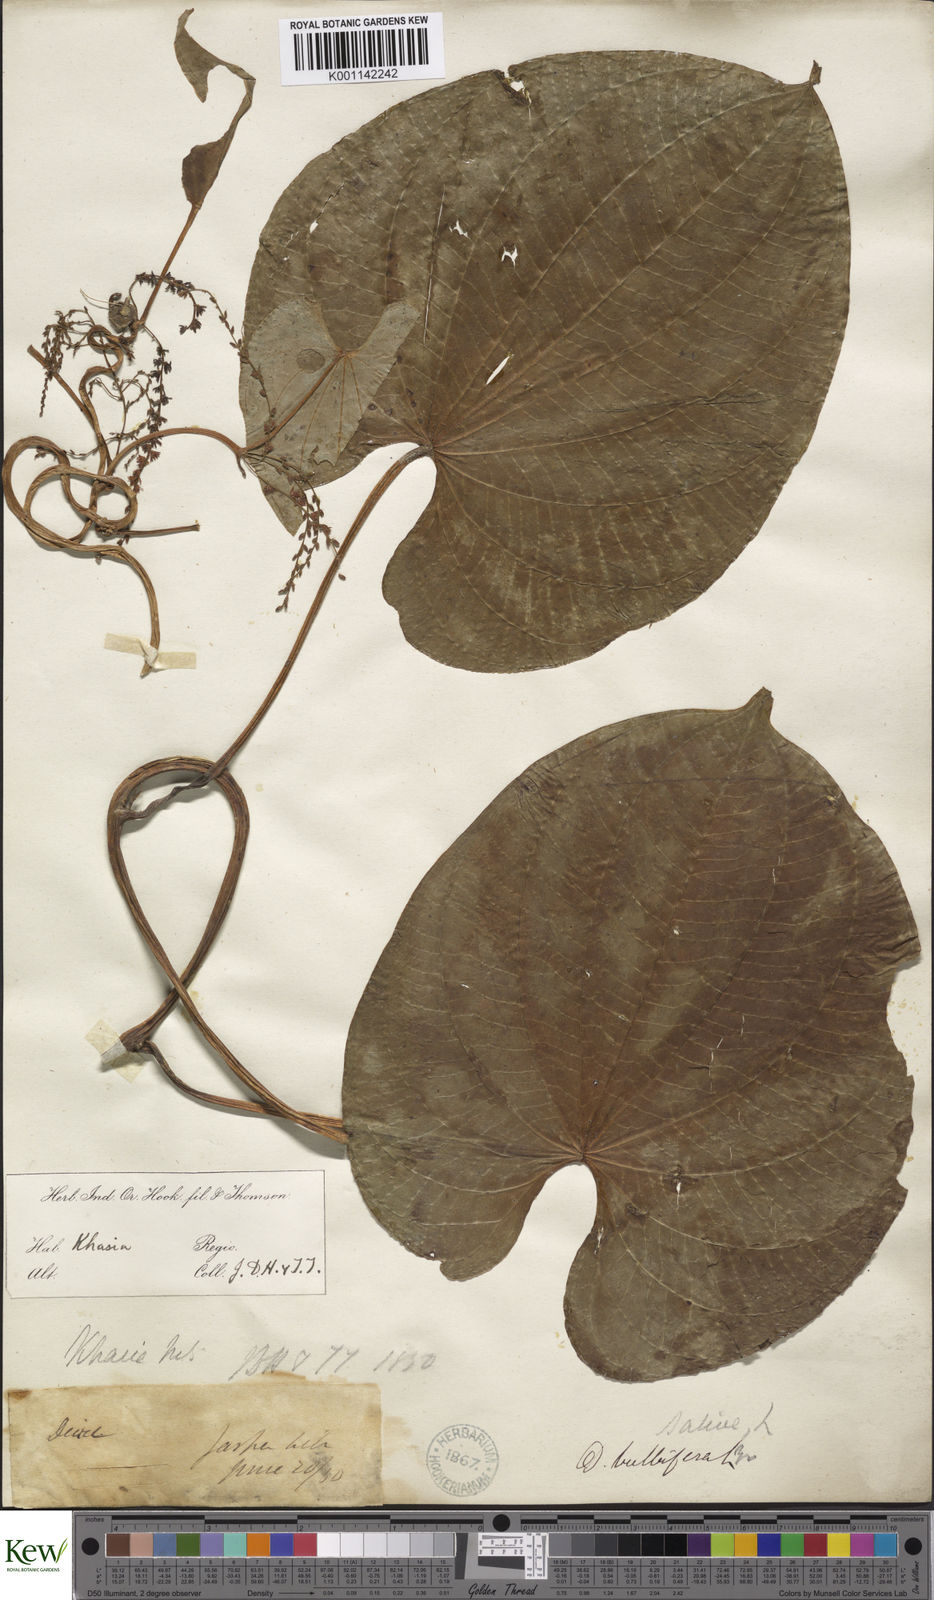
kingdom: Plantae
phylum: Tracheophyta
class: Liliopsida
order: Dioscoreales
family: Dioscoreaceae
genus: Dioscorea
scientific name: Dioscorea bulbifera
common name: Air yam
